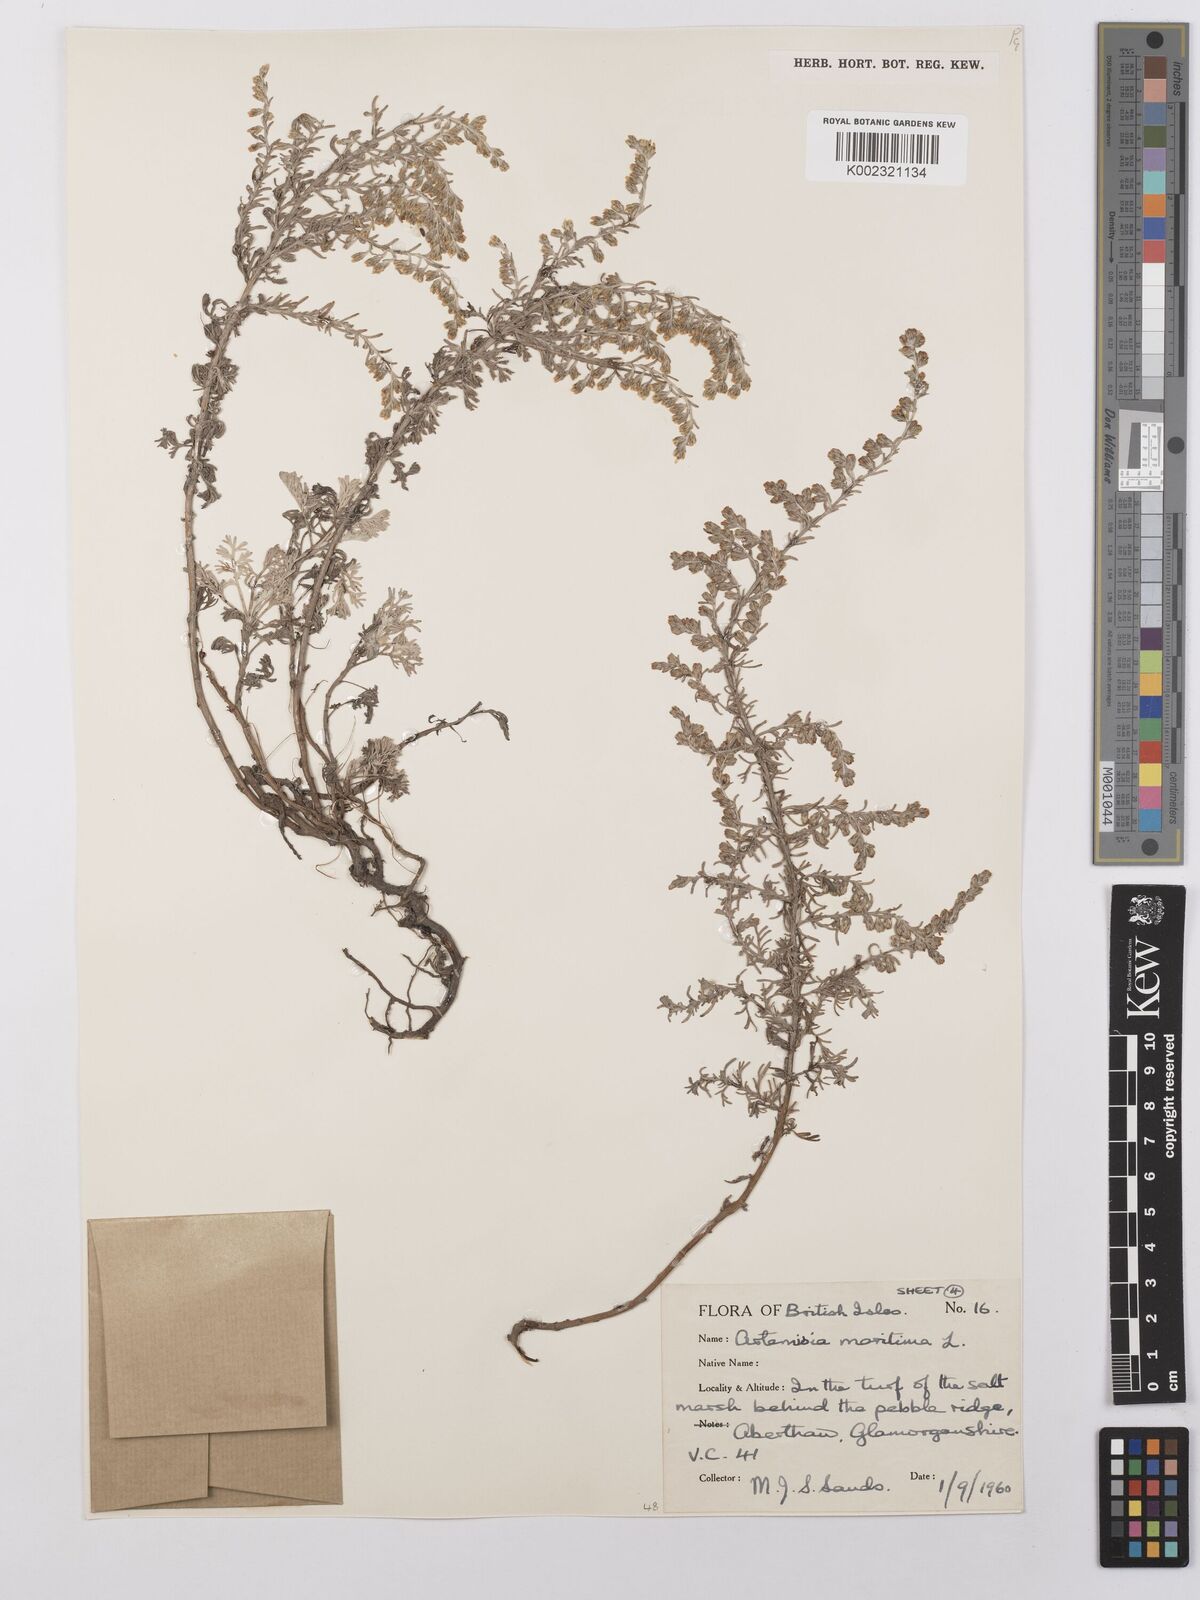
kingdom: Plantae
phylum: Tracheophyta
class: Magnoliopsida
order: Asterales
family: Asteraceae
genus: Artemisia
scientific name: Artemisia maritima
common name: Wormseed
